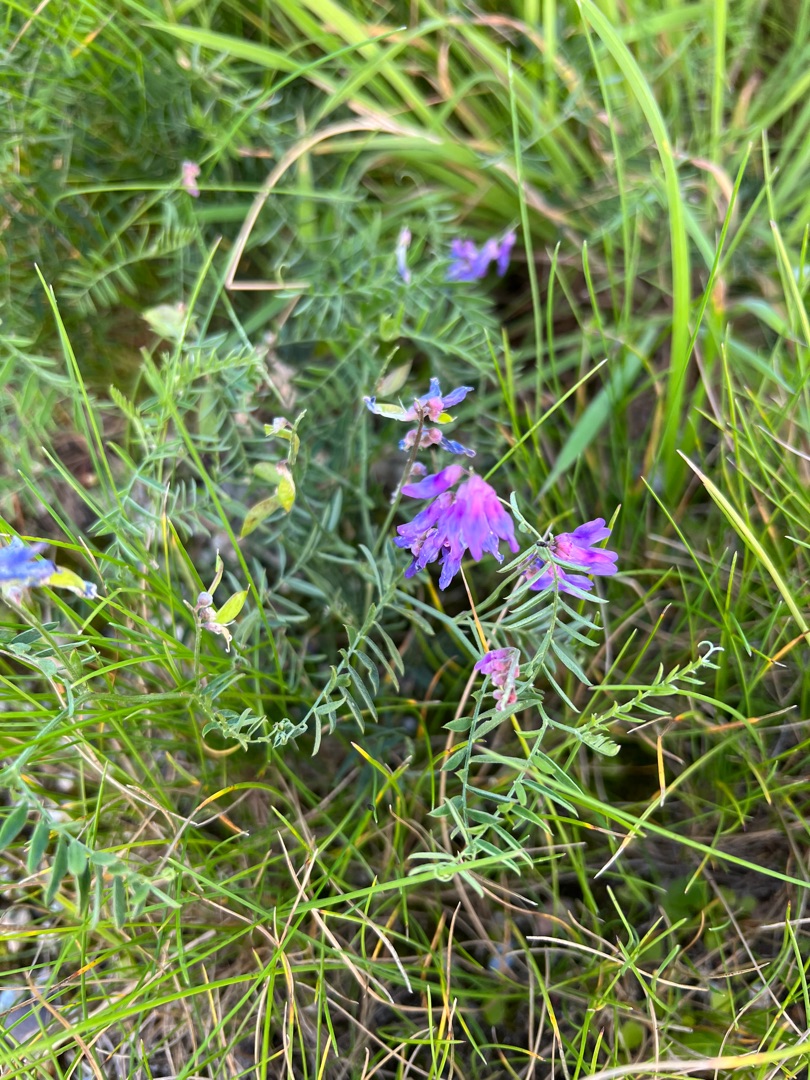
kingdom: Plantae
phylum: Tracheophyta
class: Magnoliopsida
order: Fabales
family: Fabaceae
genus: Vicia
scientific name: Vicia cracca
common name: Muse-vikke
